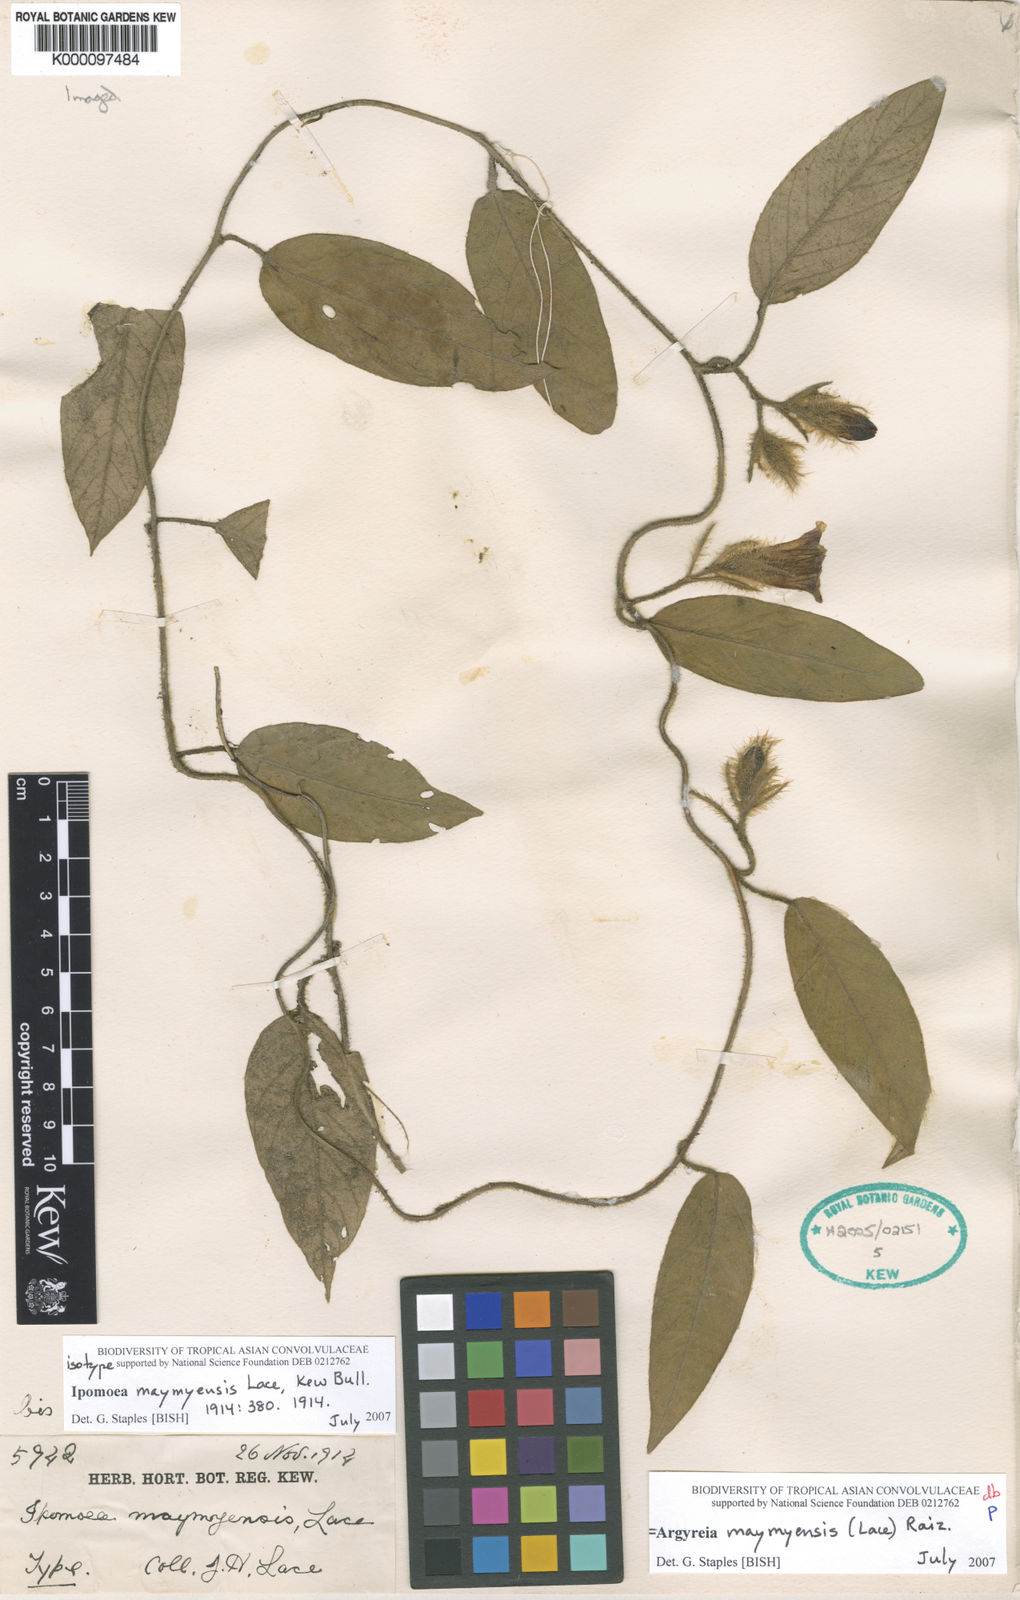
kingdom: Plantae
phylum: Tracheophyta
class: Magnoliopsida
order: Solanales
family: Convolvulaceae
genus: Argyreia
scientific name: Argyreia maymyensis
